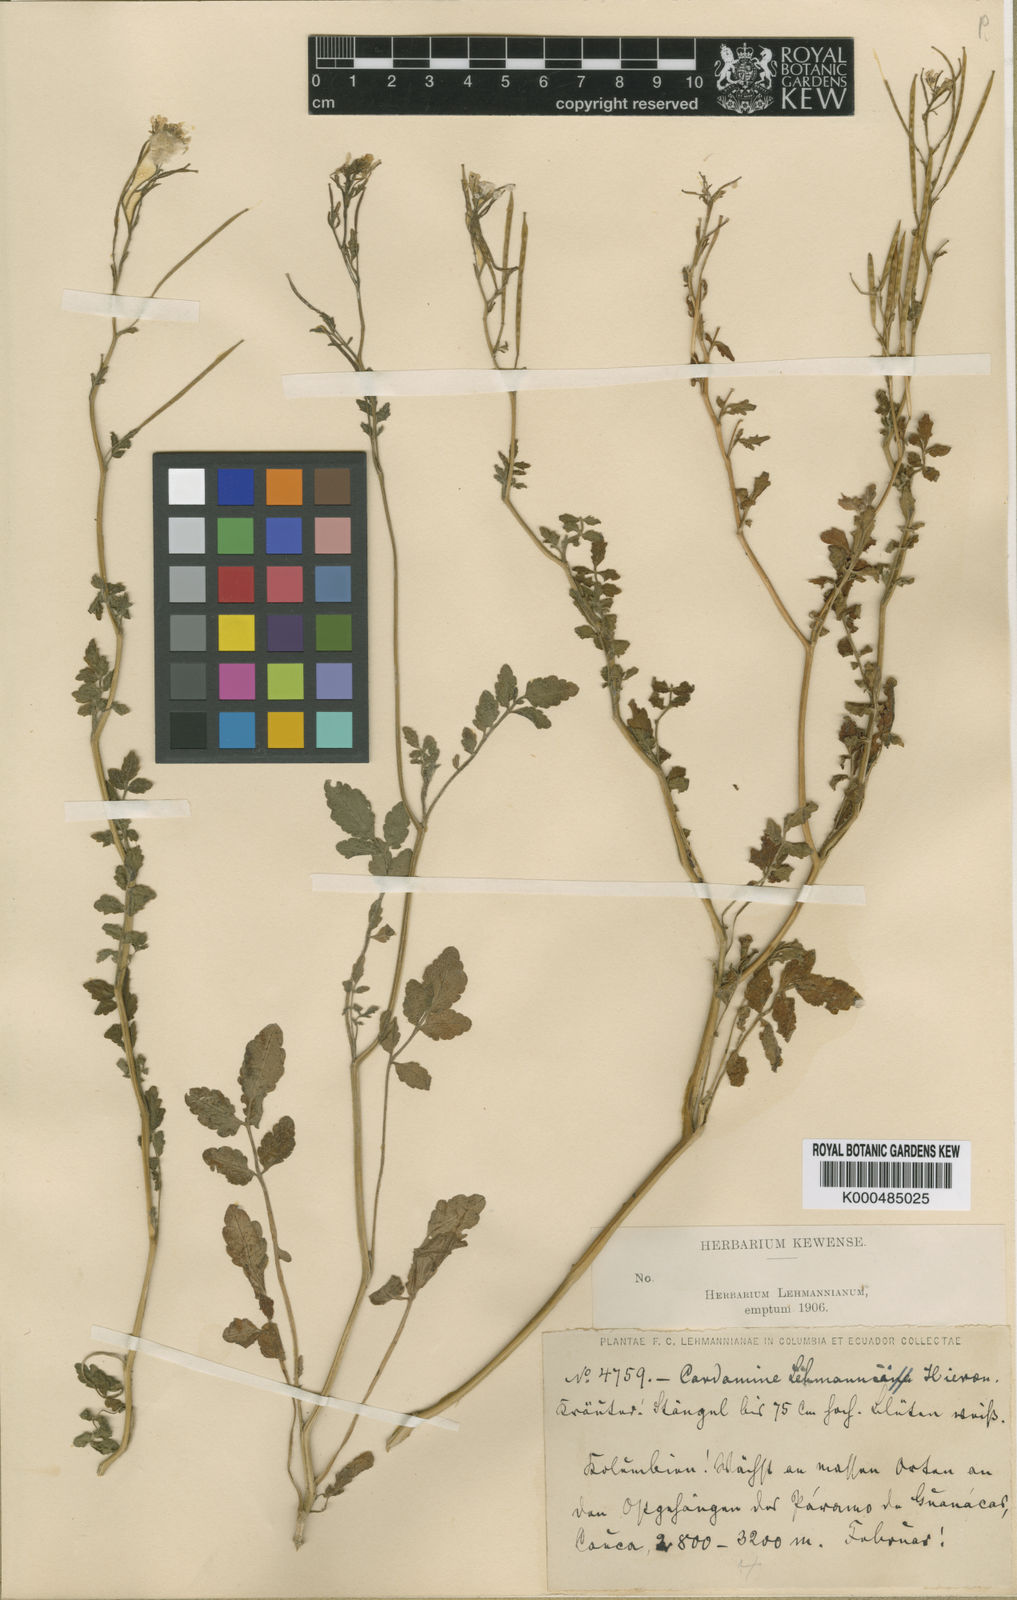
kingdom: Plantae
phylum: Tracheophyta
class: Magnoliopsida
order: Brassicales
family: Brassicaceae
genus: Cardamine
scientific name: Cardamine ovata
